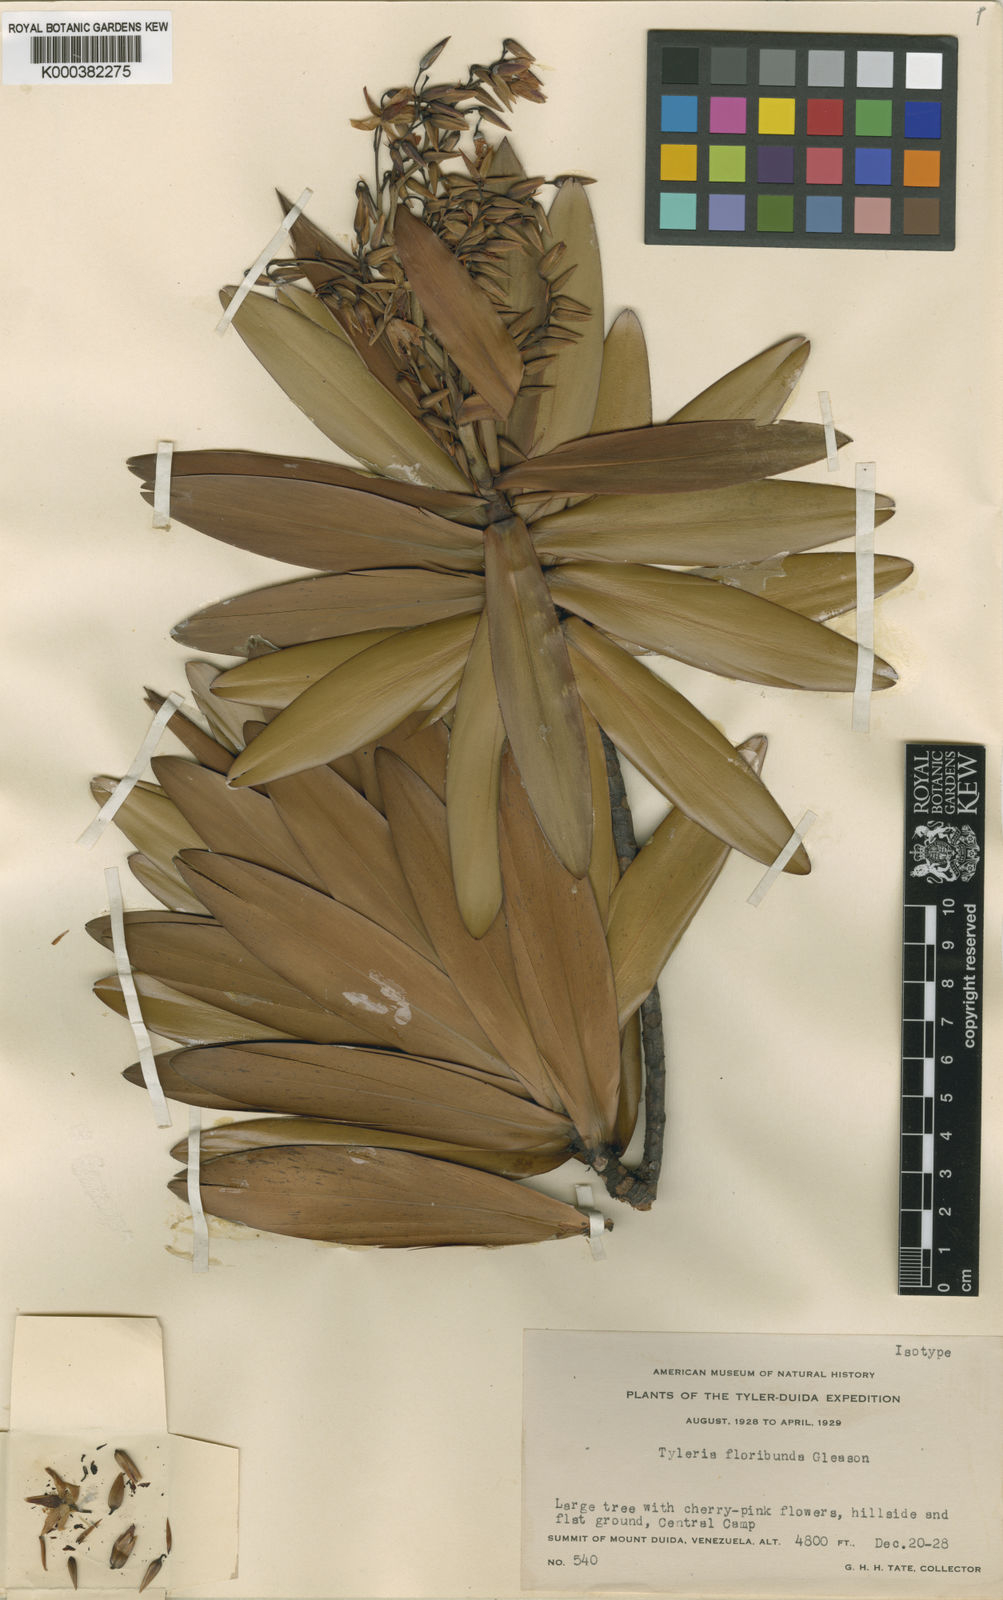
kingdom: Plantae
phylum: Tracheophyta
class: Magnoliopsida
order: Malpighiales
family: Ochnaceae
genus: Tyleria
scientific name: Tyleria floribunda
